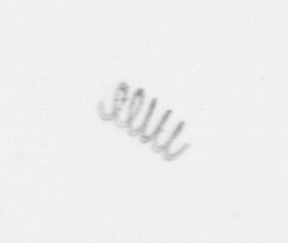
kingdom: Chromista
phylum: Ochrophyta
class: Bacillariophyceae
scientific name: Bacillariophyceae
